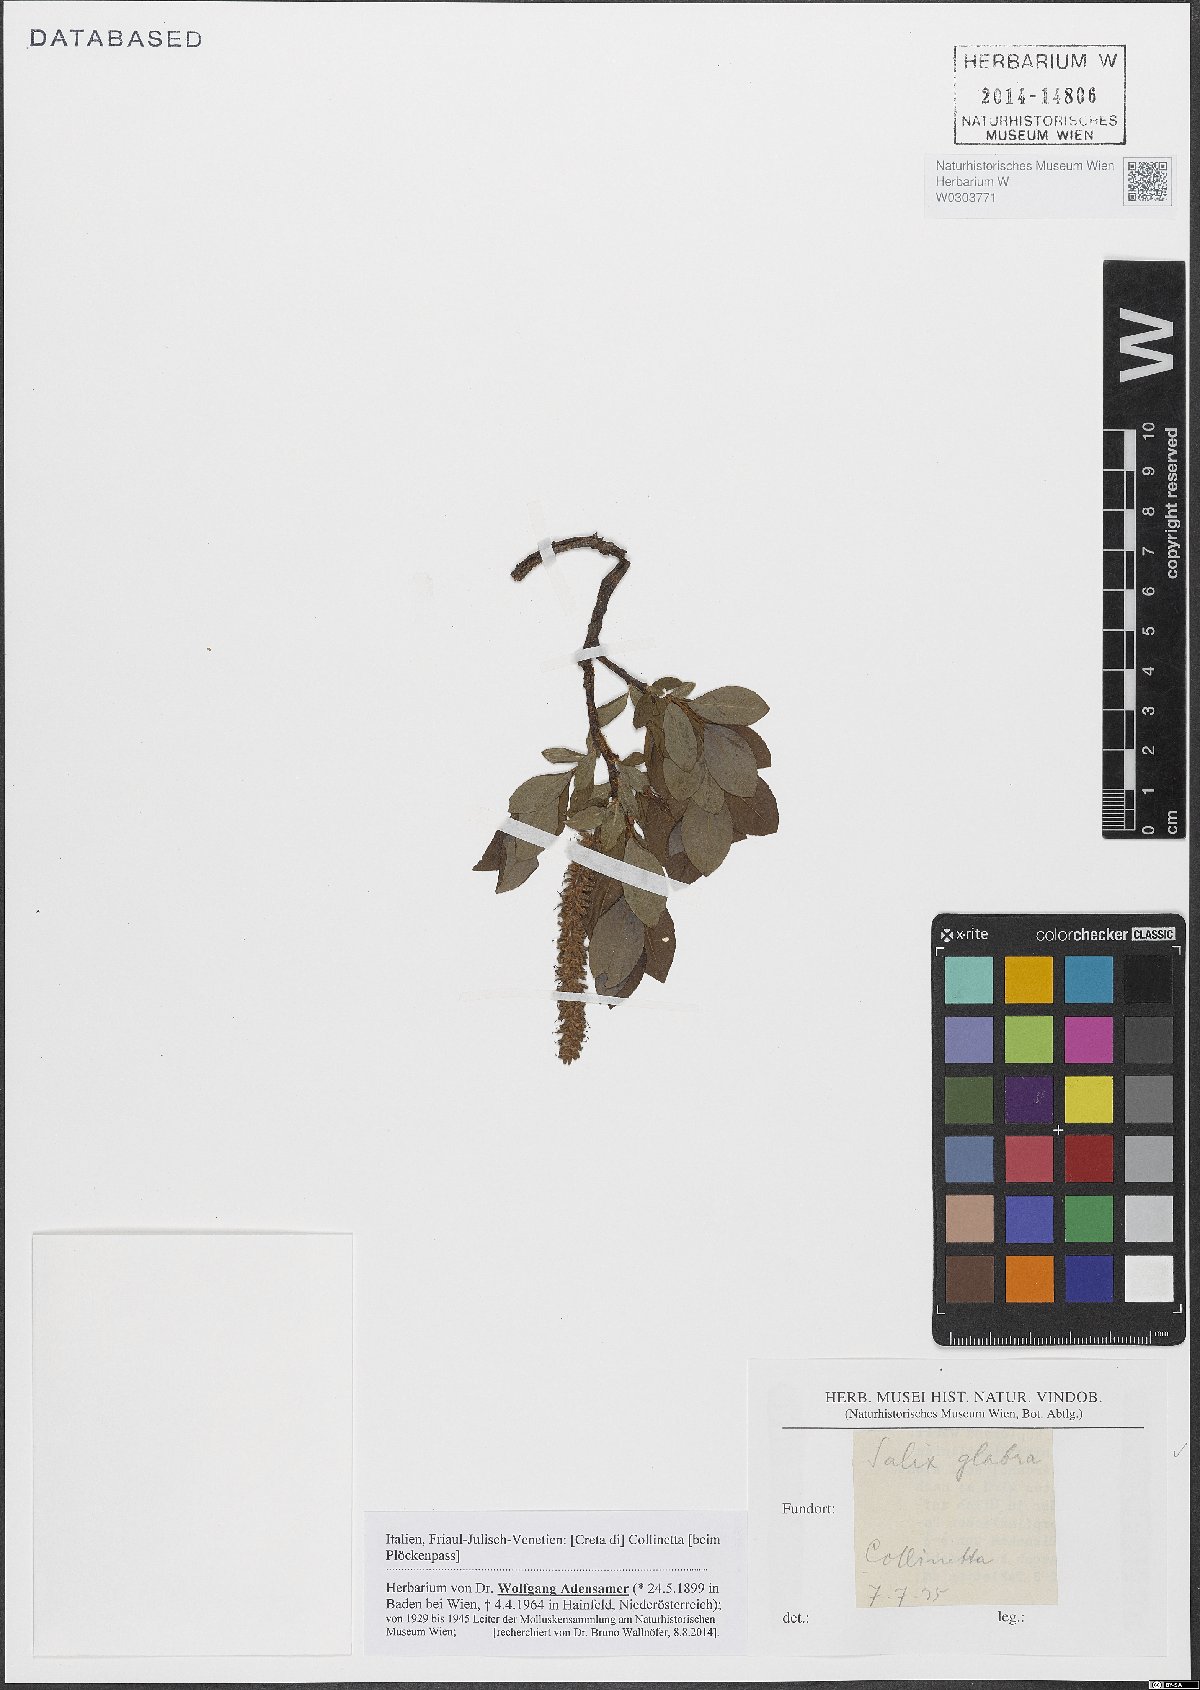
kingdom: Plantae
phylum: Tracheophyta
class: Magnoliopsida
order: Malpighiales
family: Salicaceae
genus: Salix
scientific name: Salix glabra
